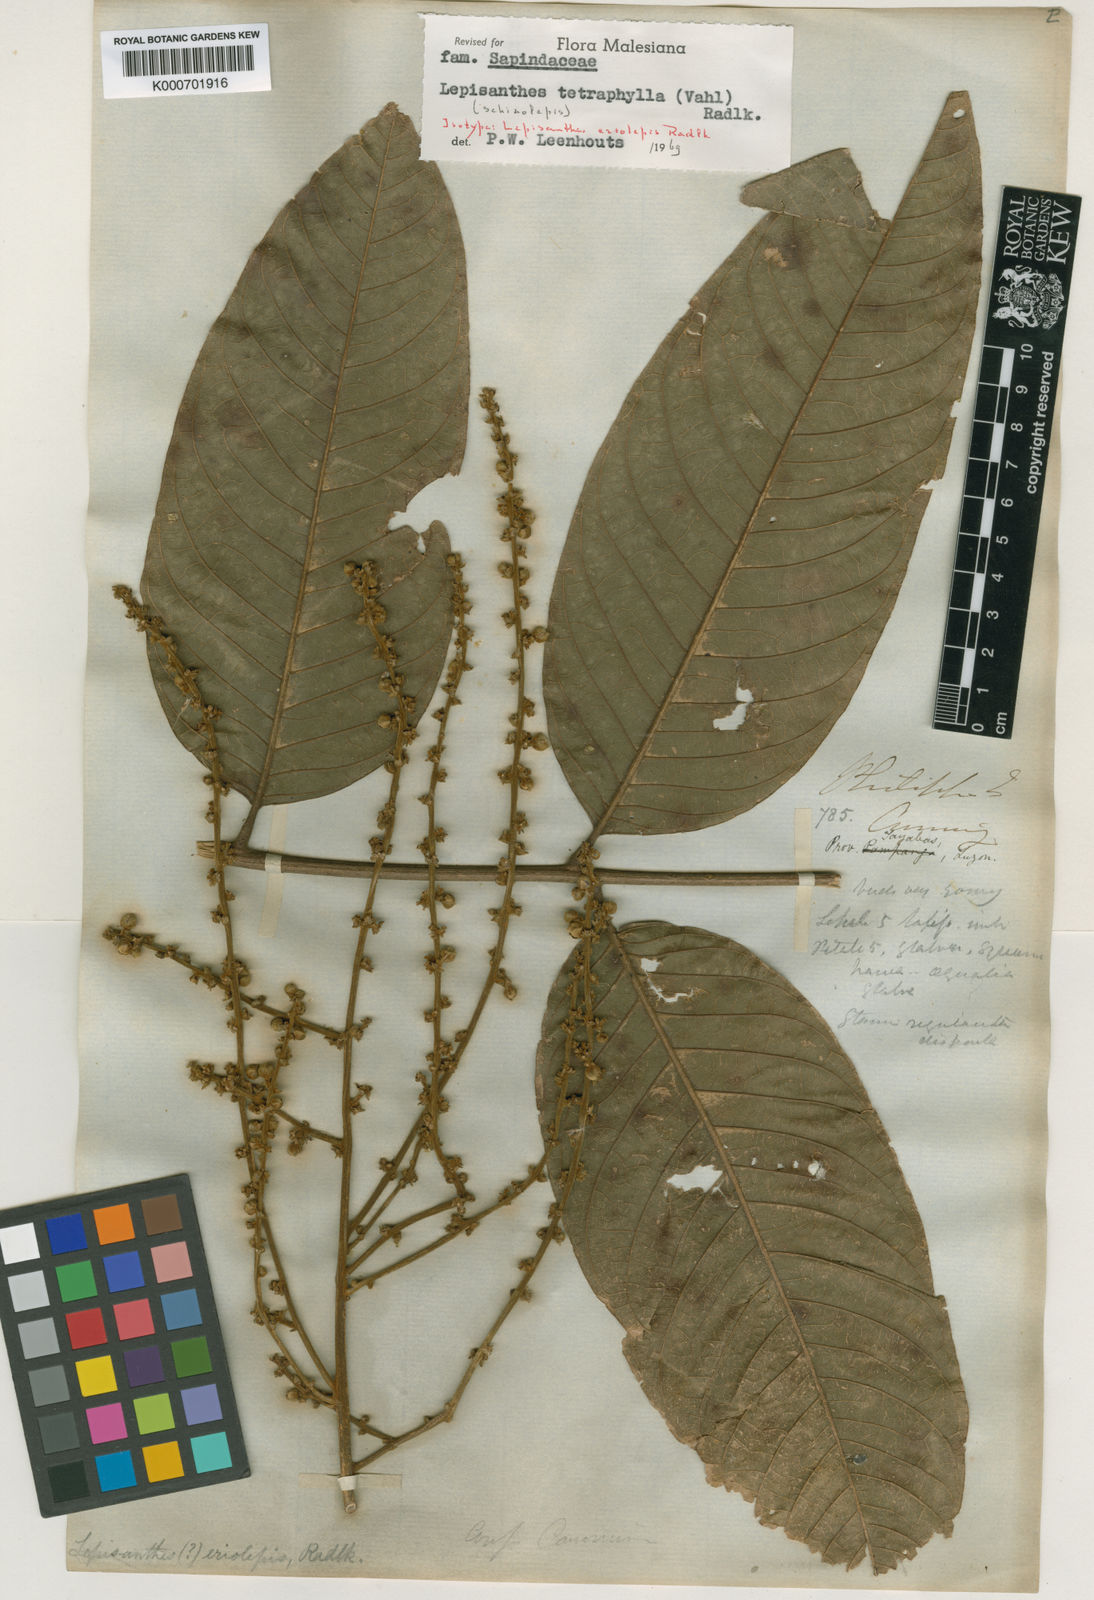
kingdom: Plantae
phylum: Tracheophyta
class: Magnoliopsida
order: Sapindales
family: Sapindaceae
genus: Lepisanthes
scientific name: Lepisanthes tetraphylla
